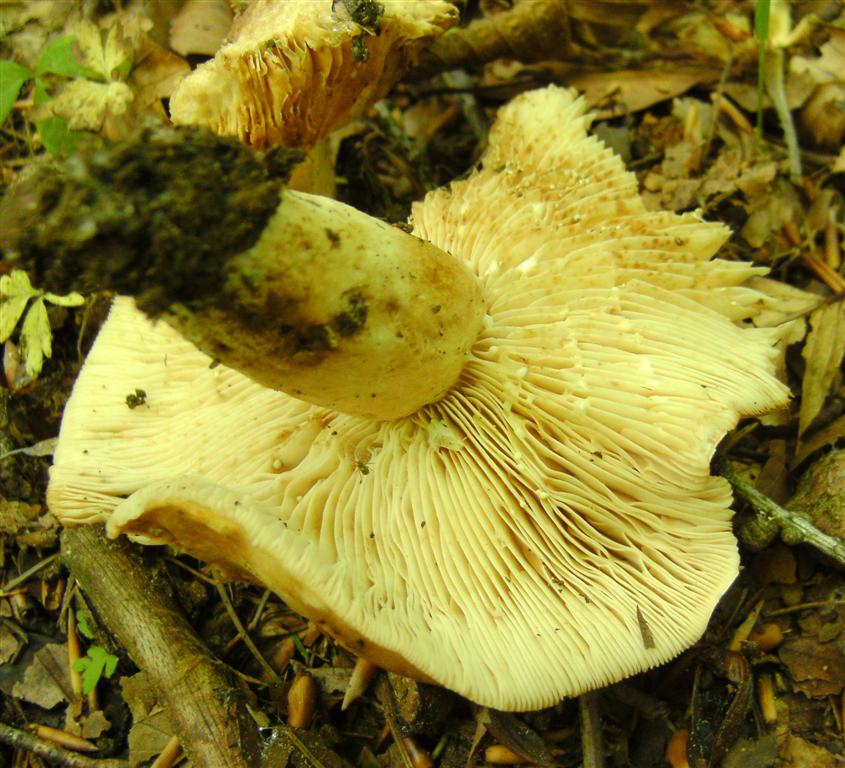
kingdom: Fungi
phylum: Basidiomycota
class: Agaricomycetes
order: Russulales
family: Russulaceae
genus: Lactarius
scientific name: Lactarius pallidus
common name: bleg mælkehat
